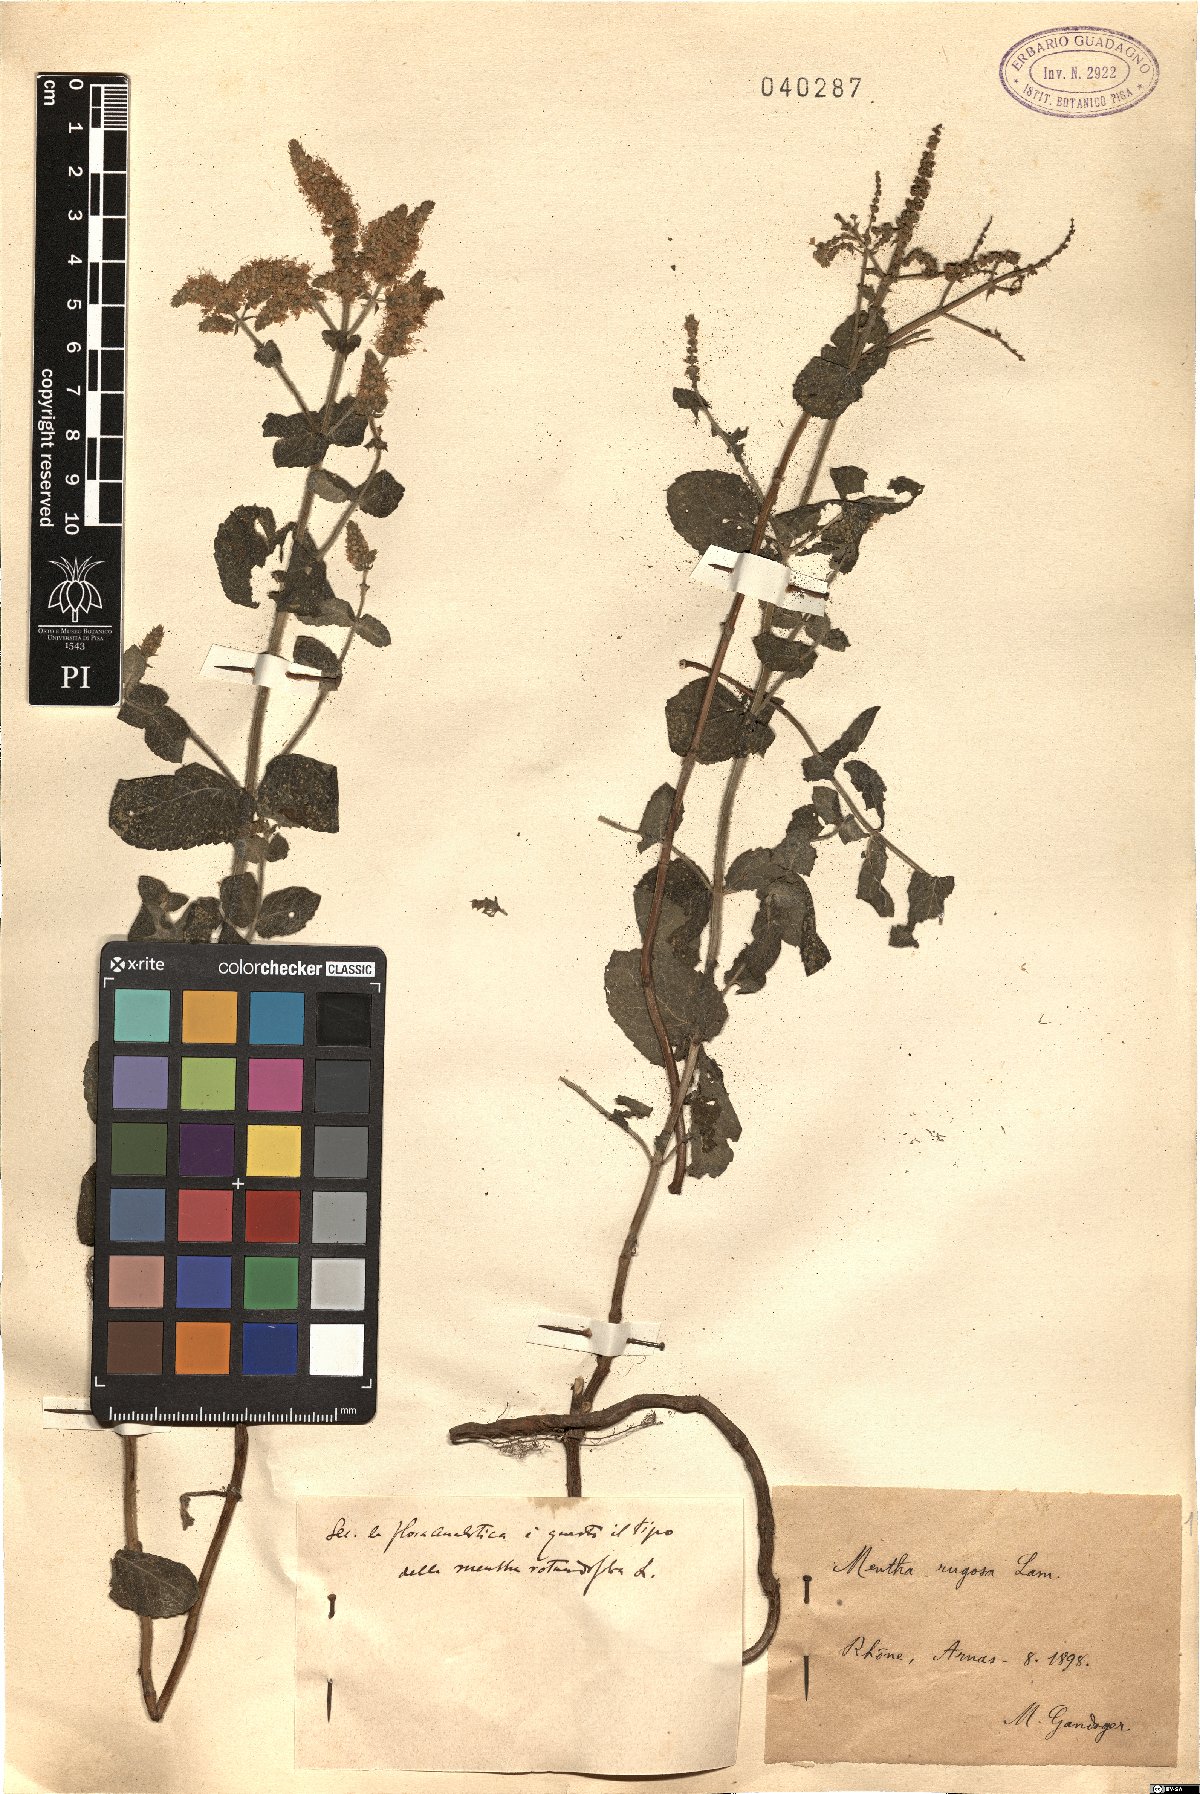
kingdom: Plantae
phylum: Tracheophyta
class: Magnoliopsida
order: Lamiales
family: Lamiaceae
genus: Mentha
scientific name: Mentha suaveolens
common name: Apple mint
